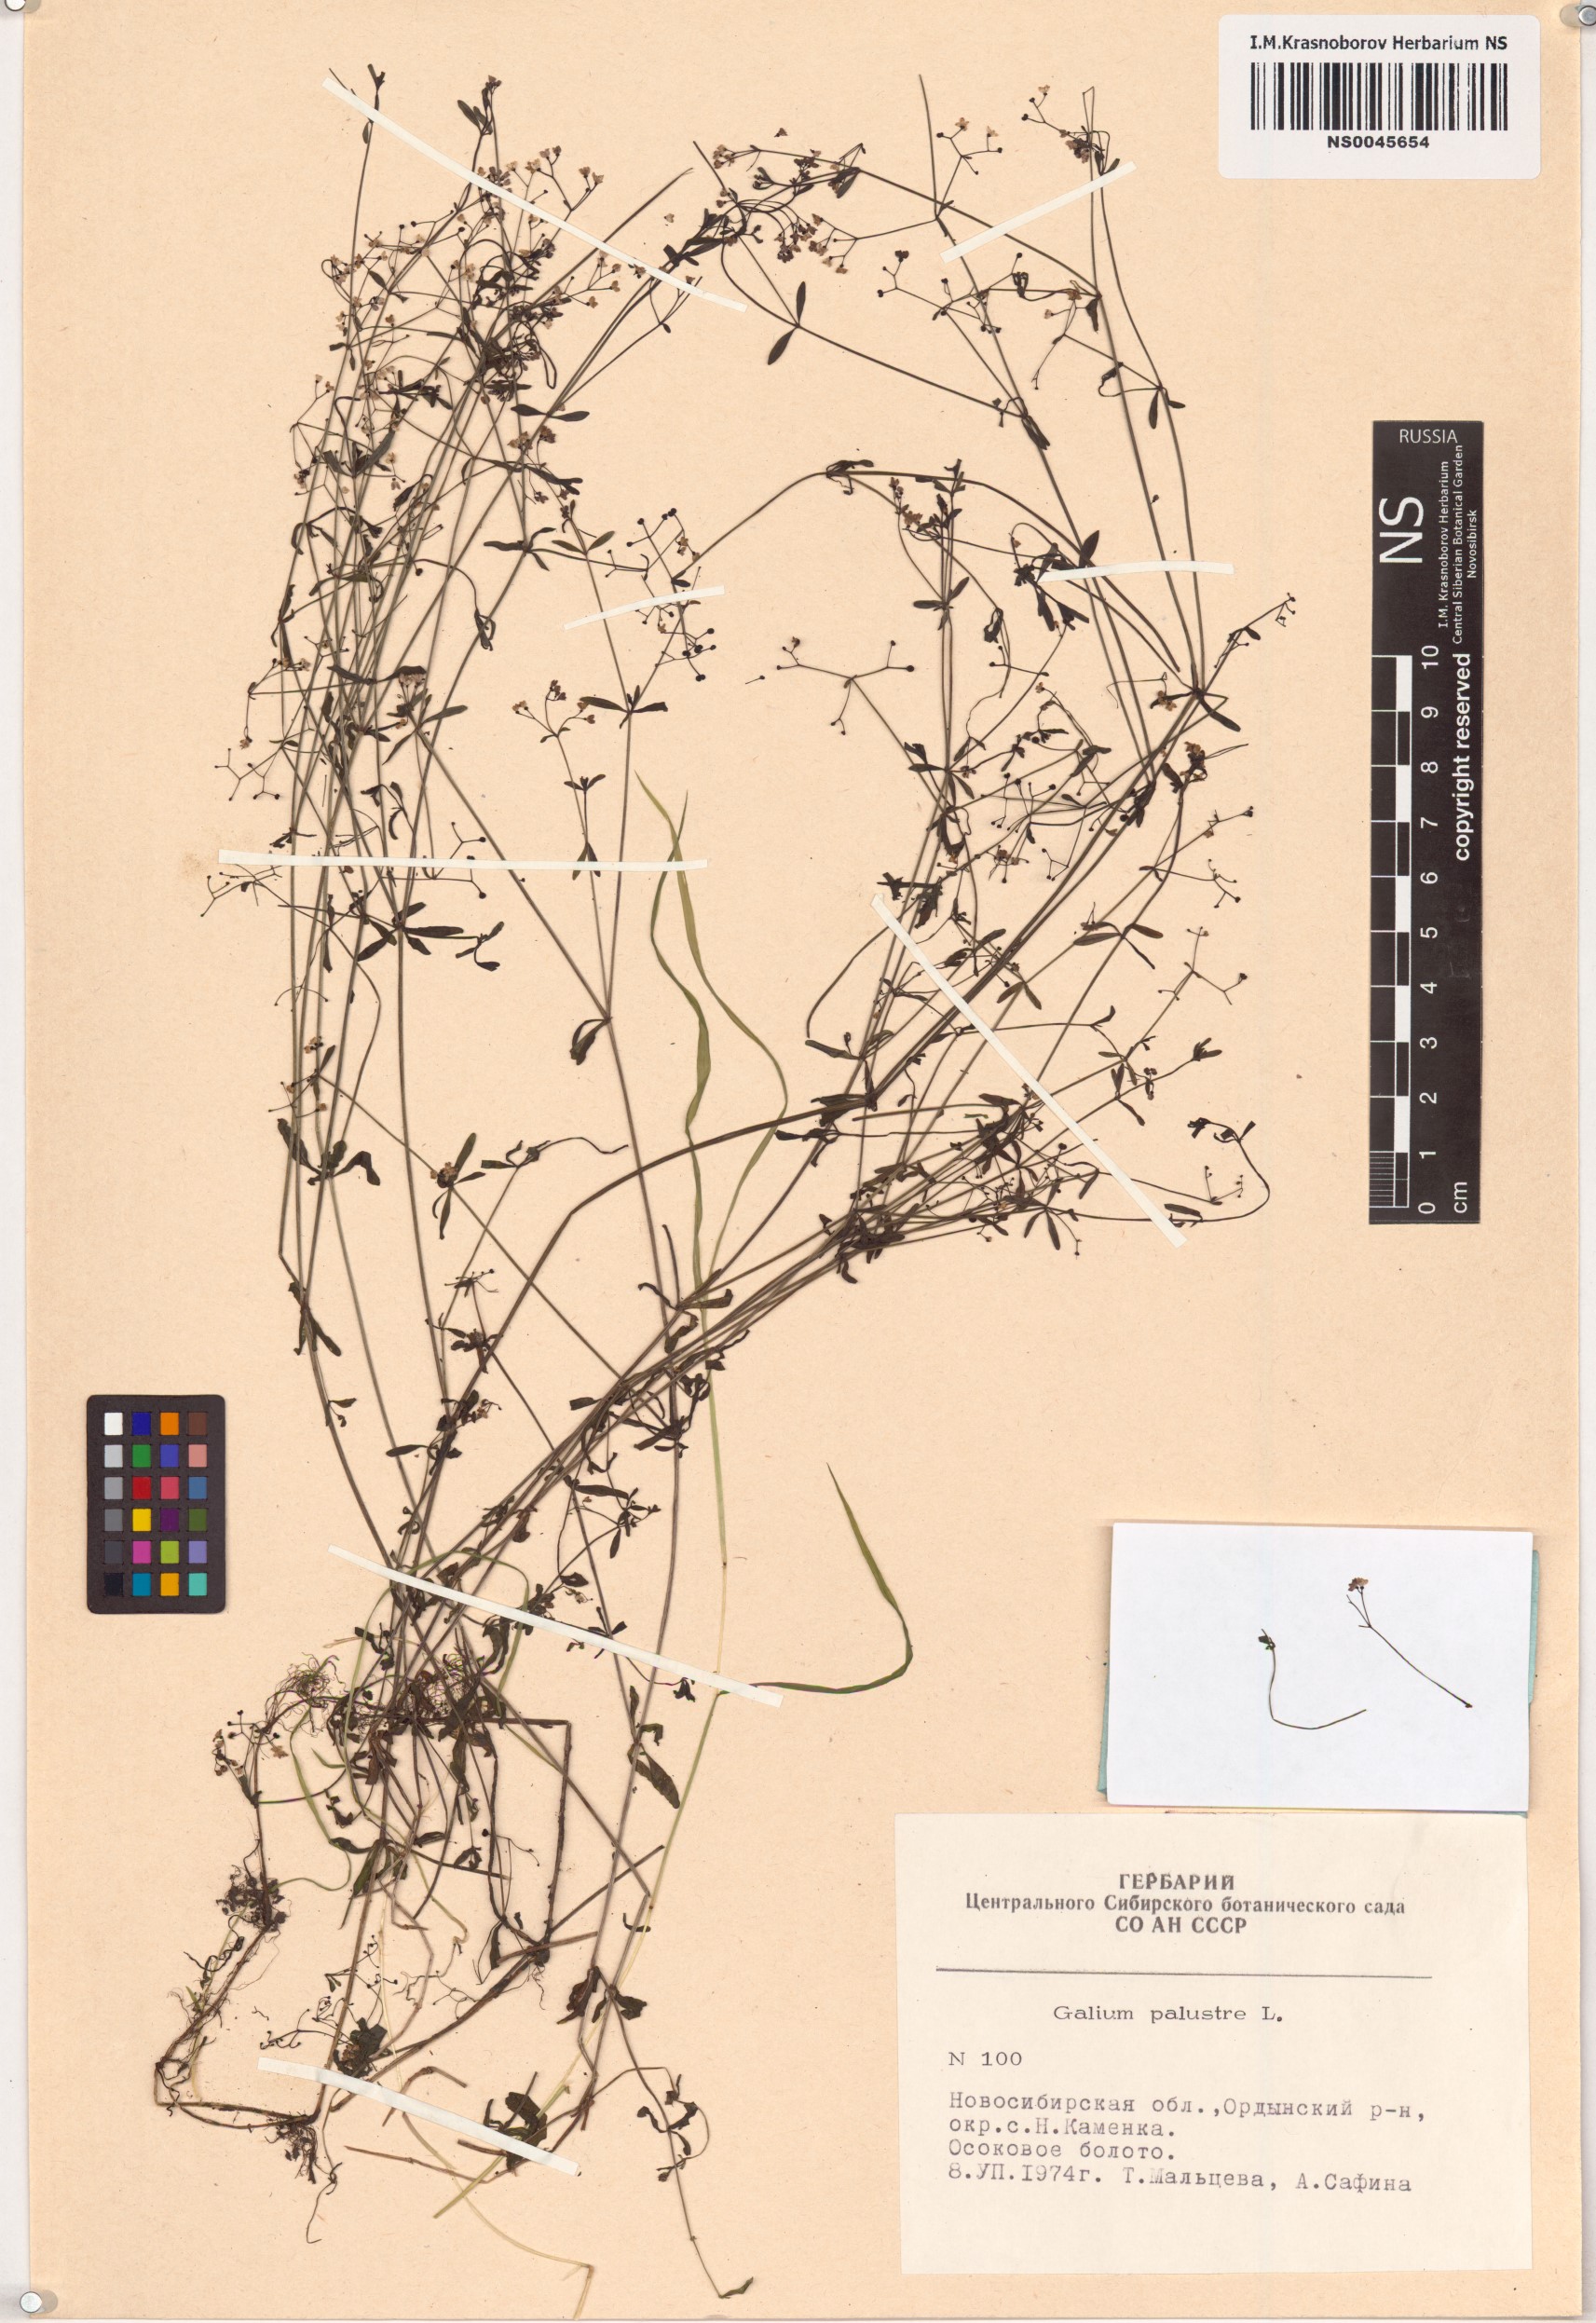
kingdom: Plantae
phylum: Tracheophyta
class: Magnoliopsida
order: Gentianales
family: Rubiaceae
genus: Galium
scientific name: Galium palustre
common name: Common marsh-bedstraw
